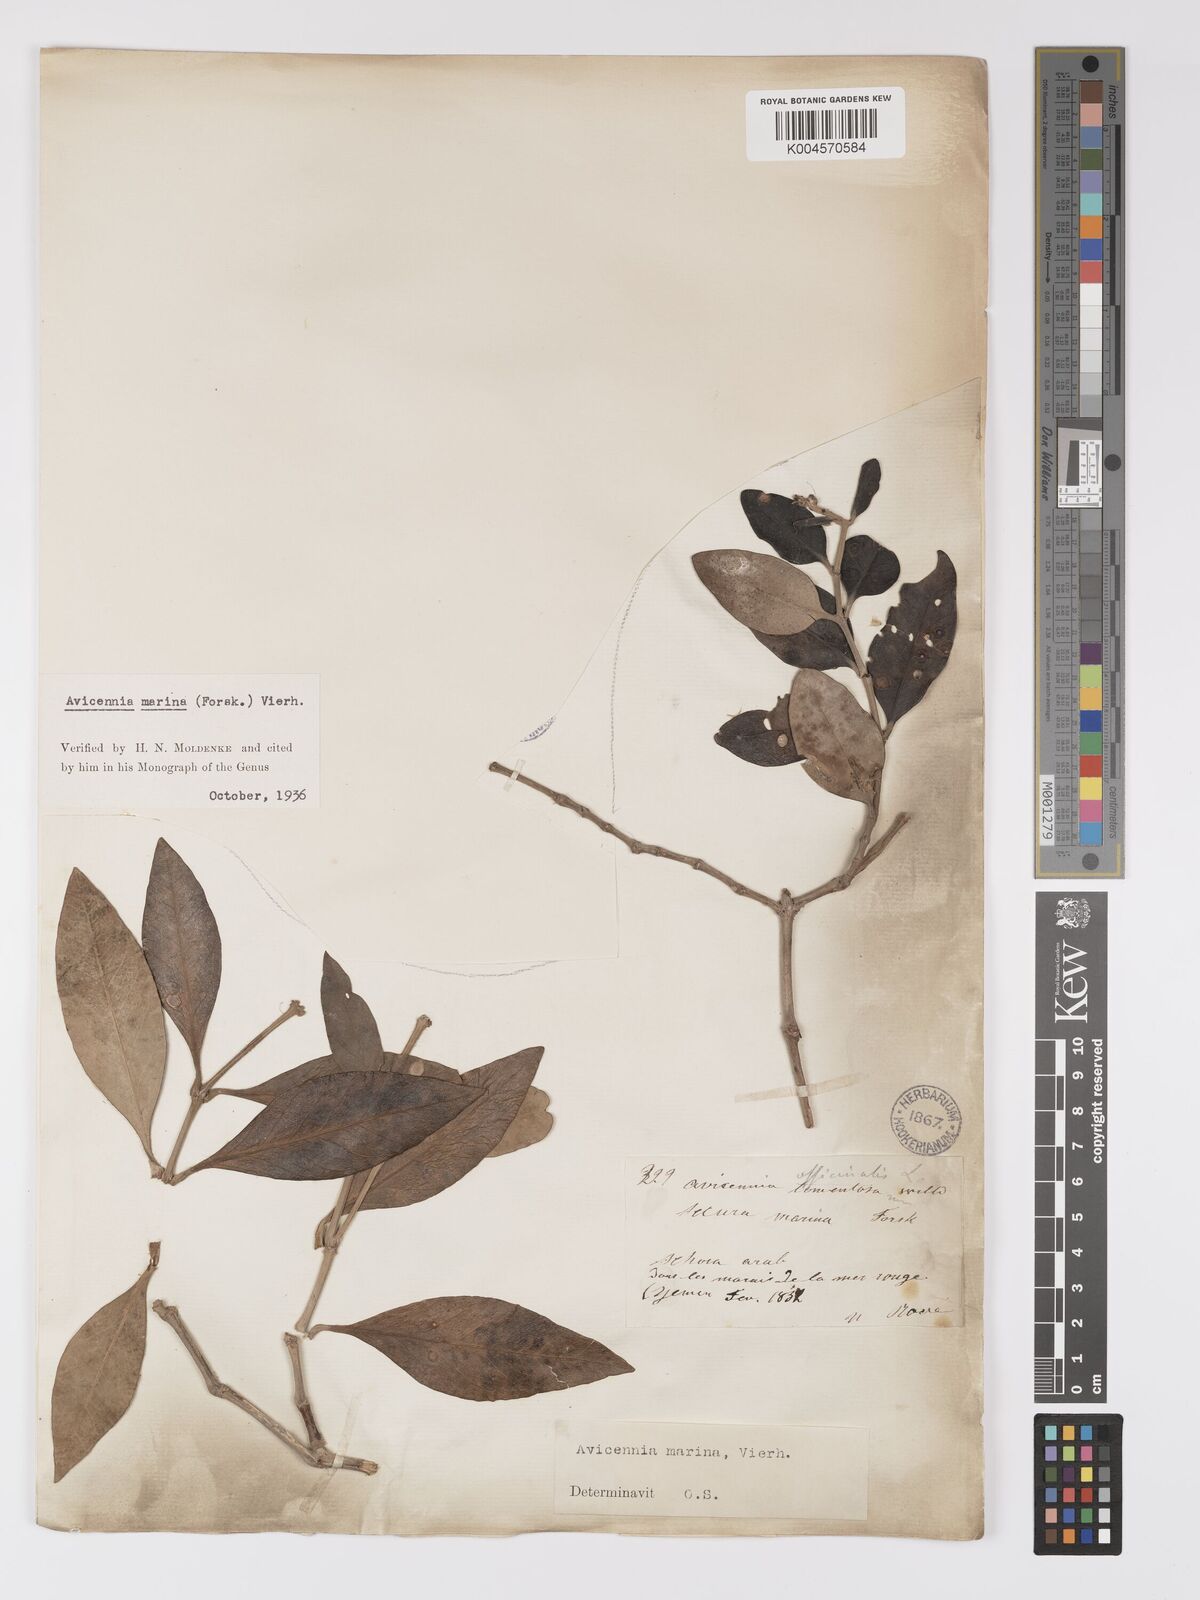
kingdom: Plantae
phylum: Tracheophyta
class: Magnoliopsida
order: Lamiales
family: Acanthaceae
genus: Avicennia
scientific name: Avicennia marina
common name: Gray mangrove
